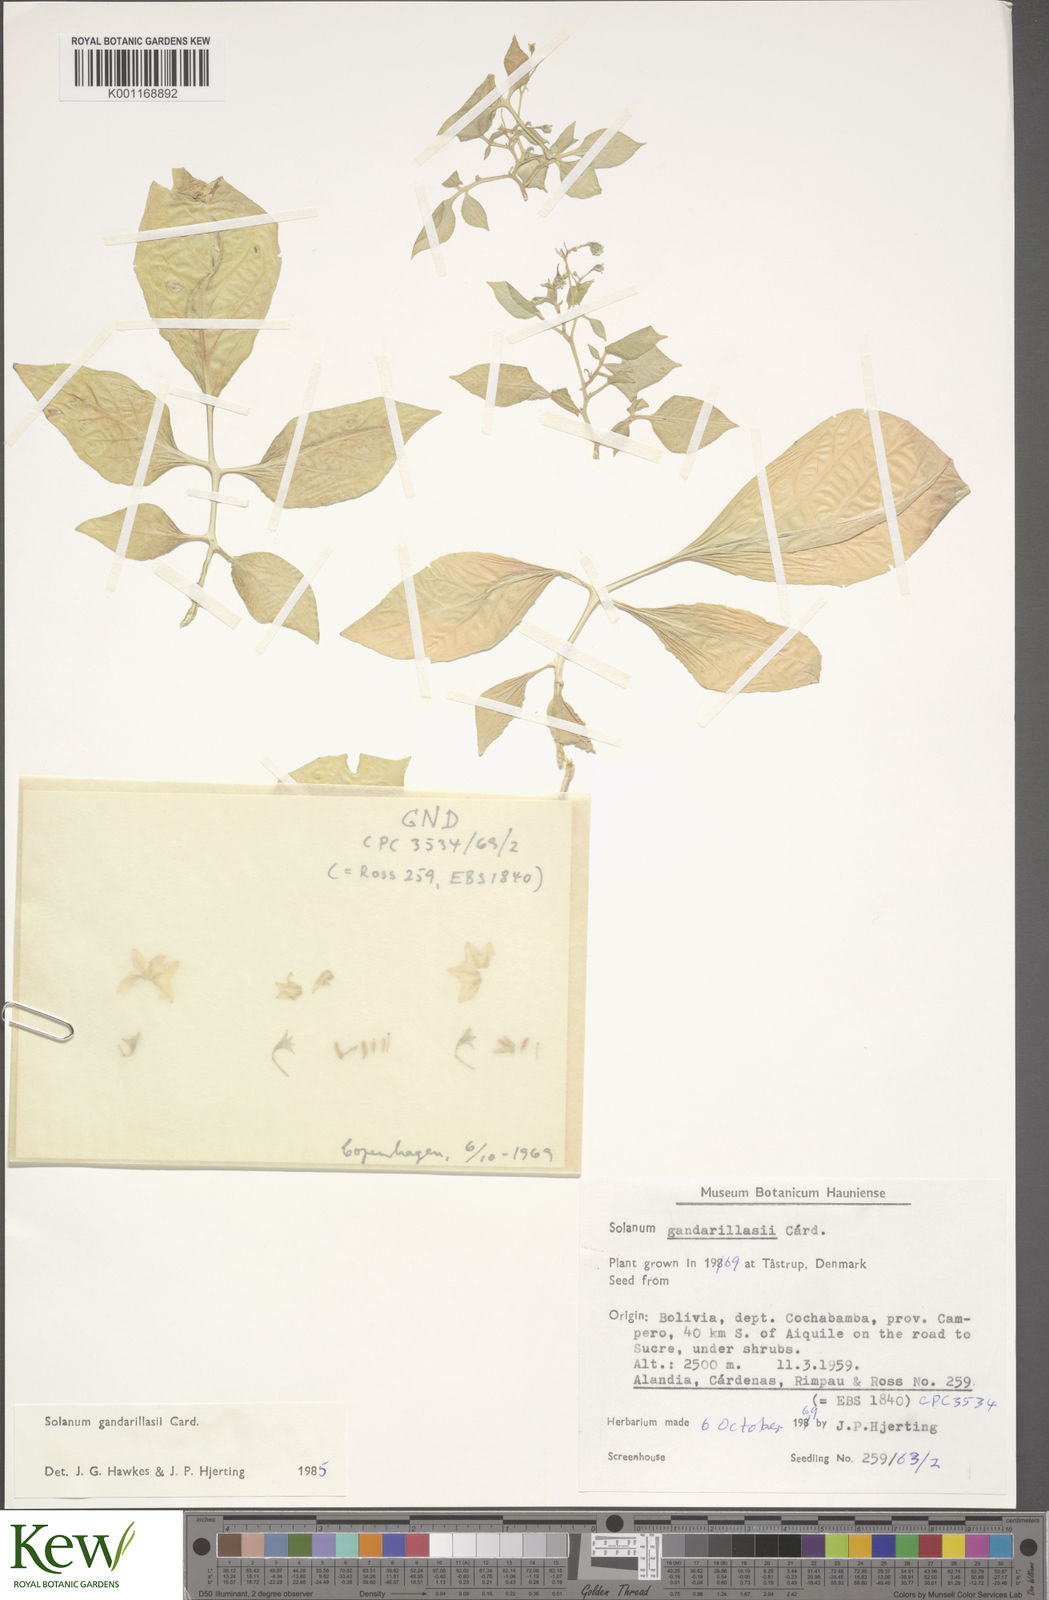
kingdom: Plantae
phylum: Tracheophyta
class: Magnoliopsida
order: Solanales
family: Solanaceae
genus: Solanum
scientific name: Solanum
